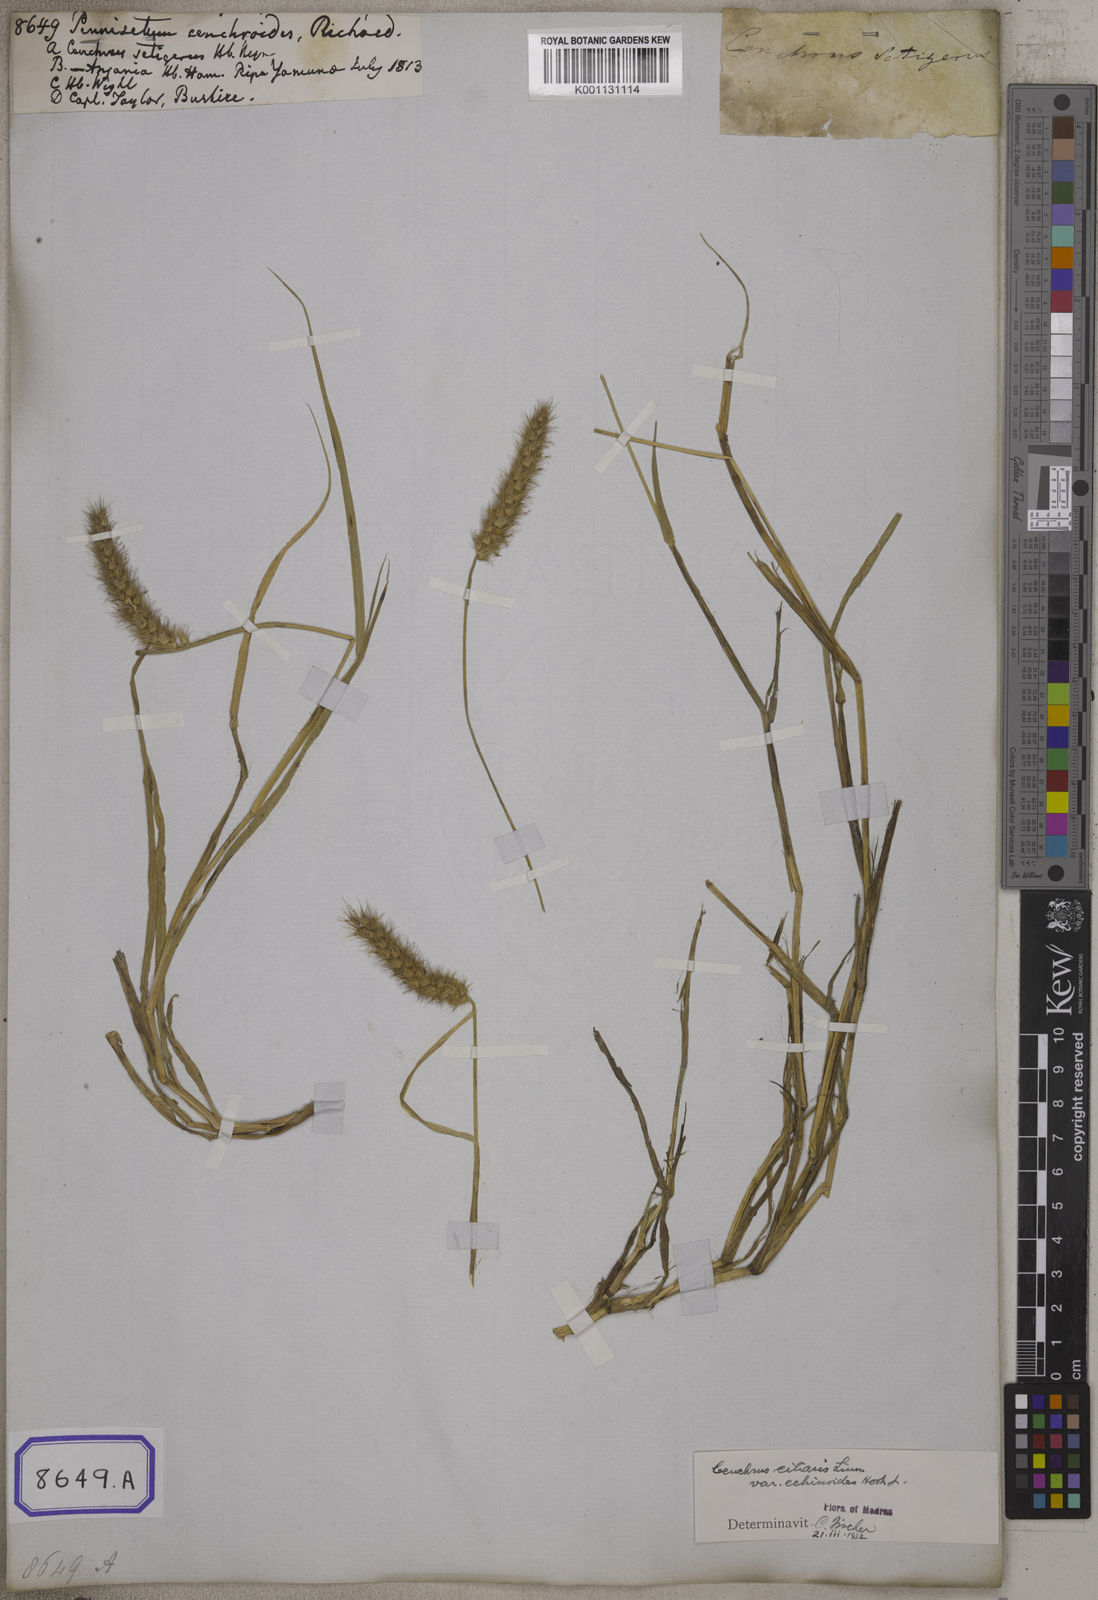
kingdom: Plantae
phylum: Tracheophyta
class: Liliopsida
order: Poales
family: Poaceae
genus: Cenchrus
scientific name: Cenchrus ciliaris
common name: Buffelgrass
